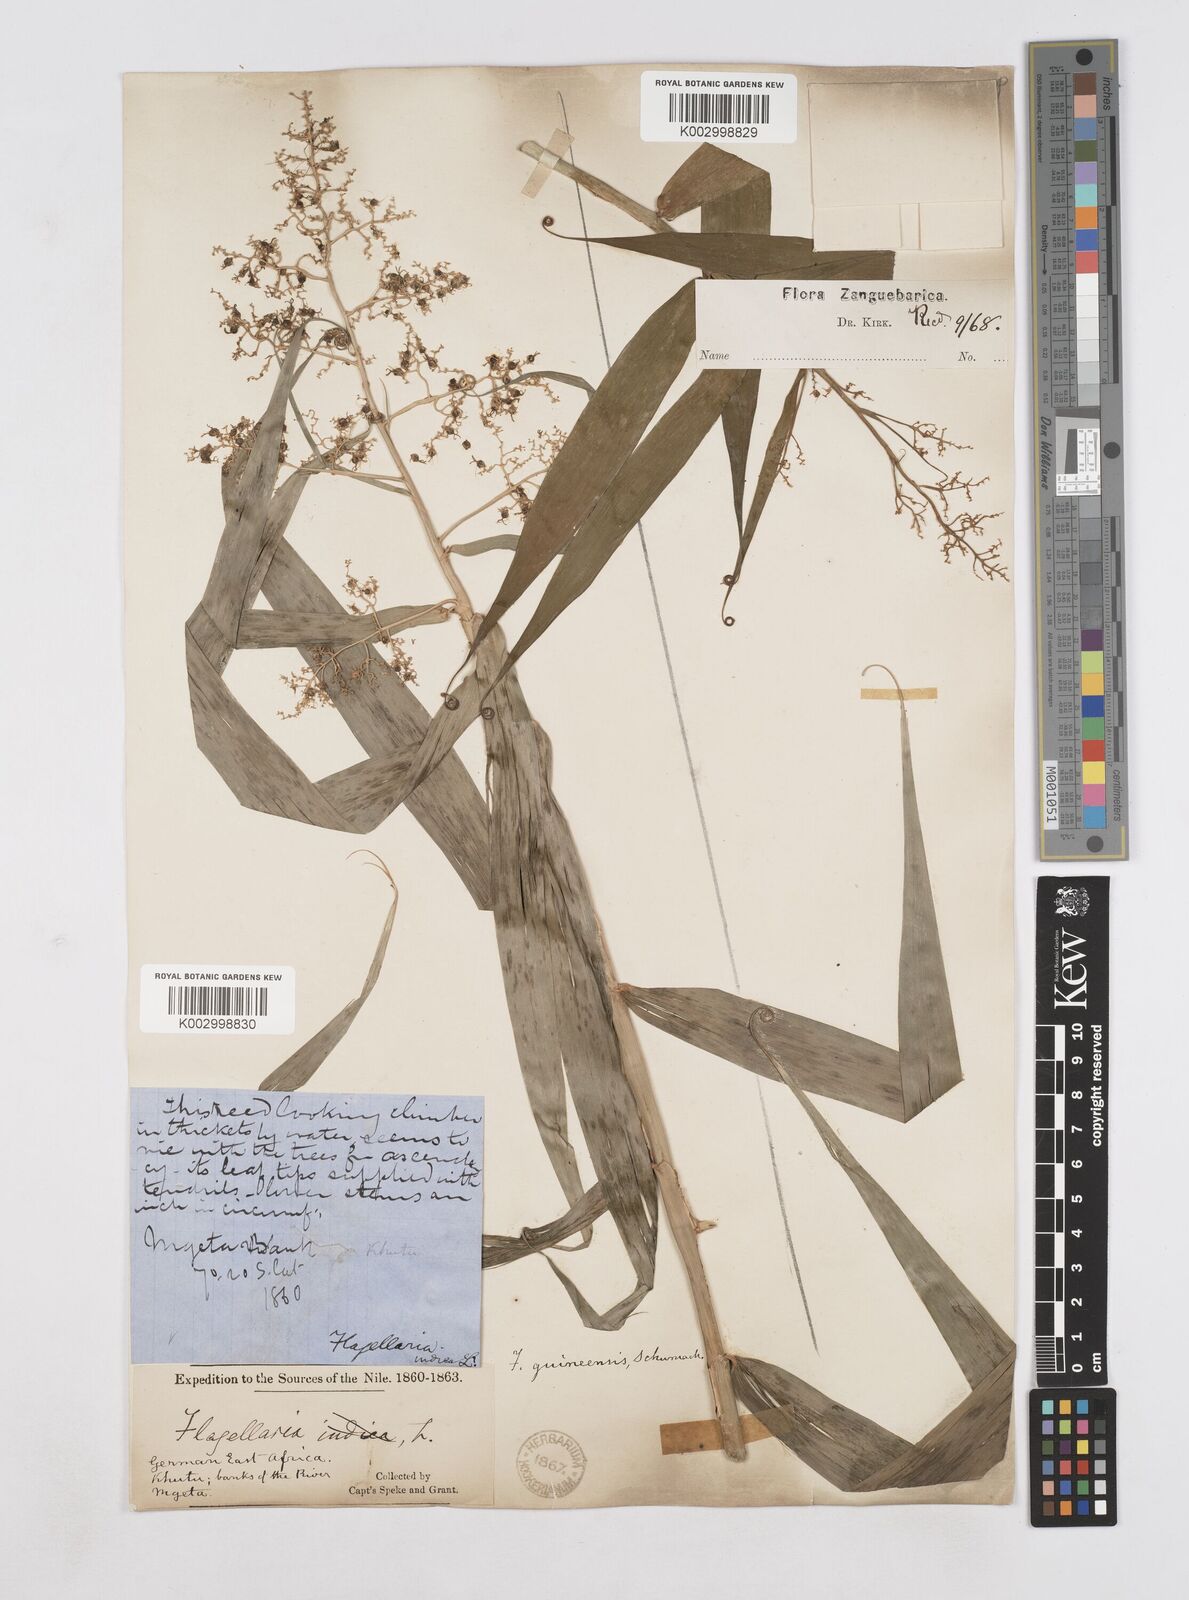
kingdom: Plantae
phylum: Tracheophyta
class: Liliopsida
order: Poales
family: Flagellariaceae
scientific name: Flagellariaceae
